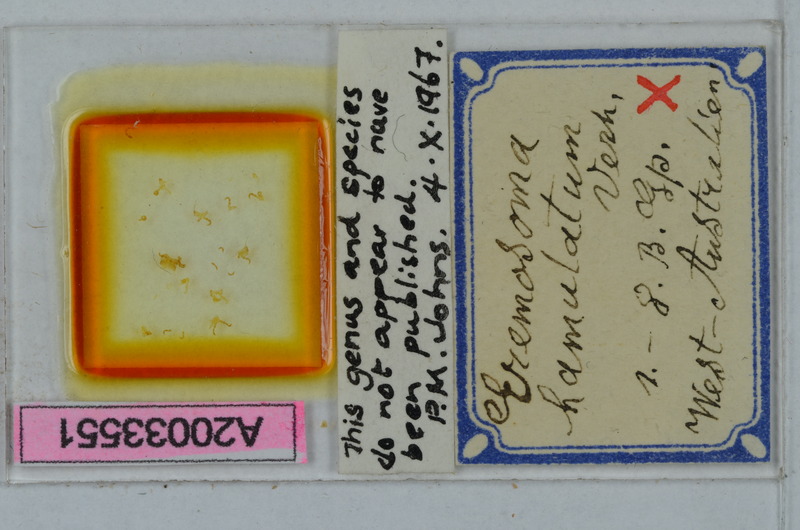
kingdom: Animalia
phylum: Arthropoda
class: Insecta
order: Coleoptera
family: Carabidae
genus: Calosoma
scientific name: Calosoma
